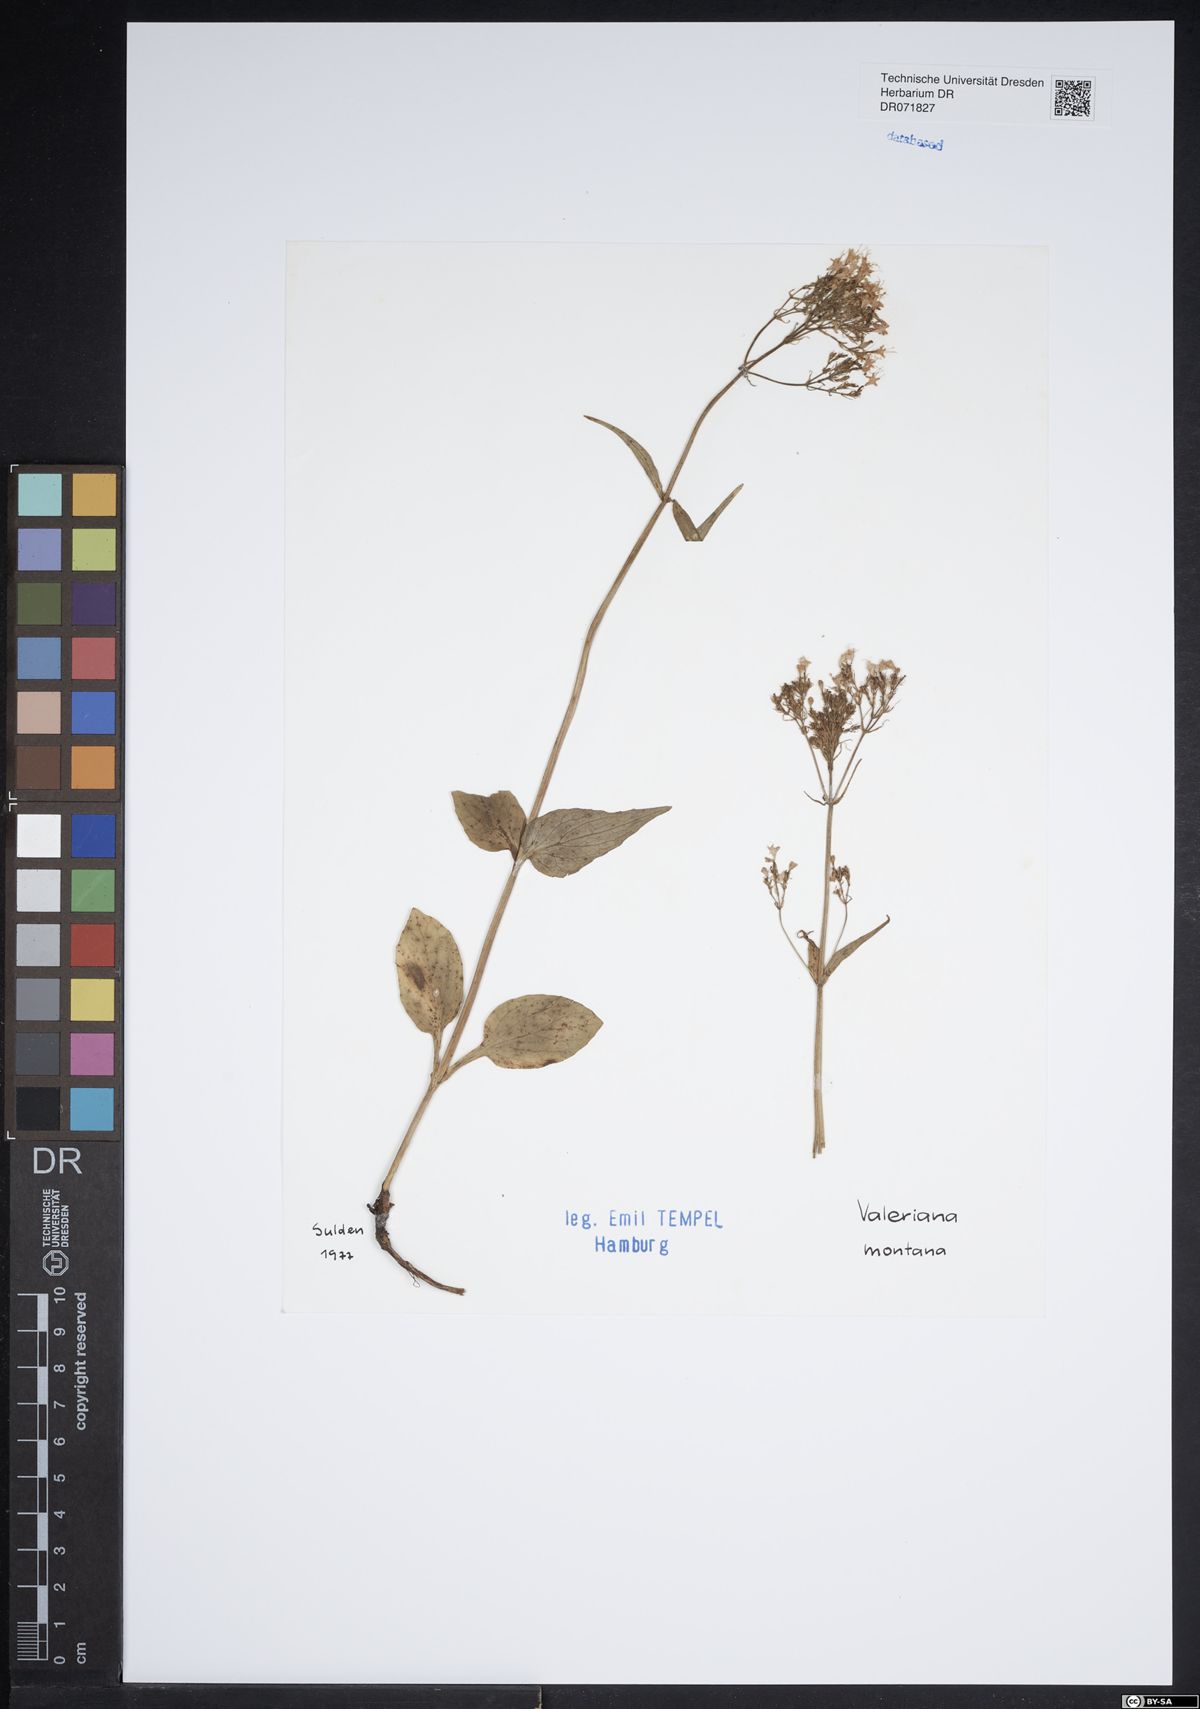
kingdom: Plantae
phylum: Tracheophyta
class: Magnoliopsida
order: Dipsacales
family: Caprifoliaceae
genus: Valeriana
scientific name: Valeriana montana
